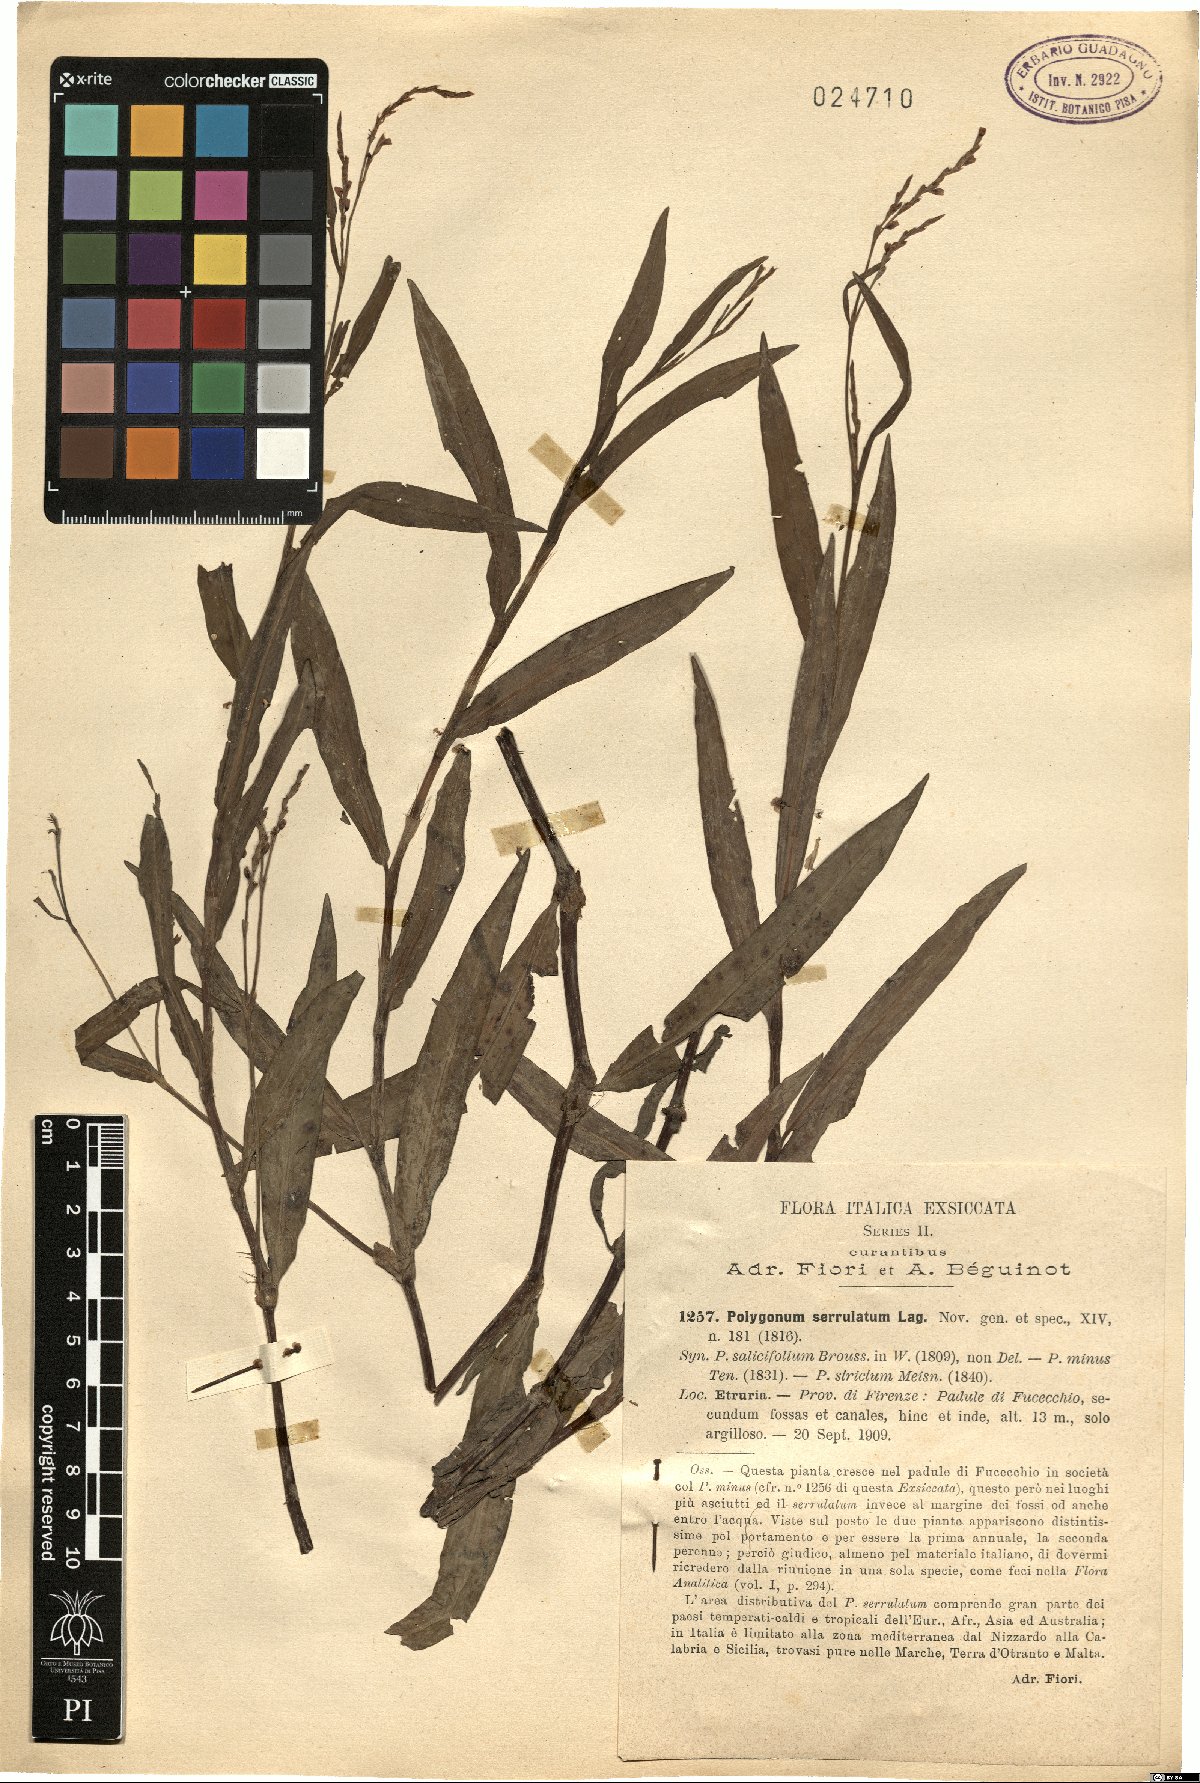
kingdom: Plantae
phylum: Tracheophyta
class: Magnoliopsida
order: Caryophyllales
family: Polygonaceae
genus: Persicaria
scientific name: Persicaria salicifolia
